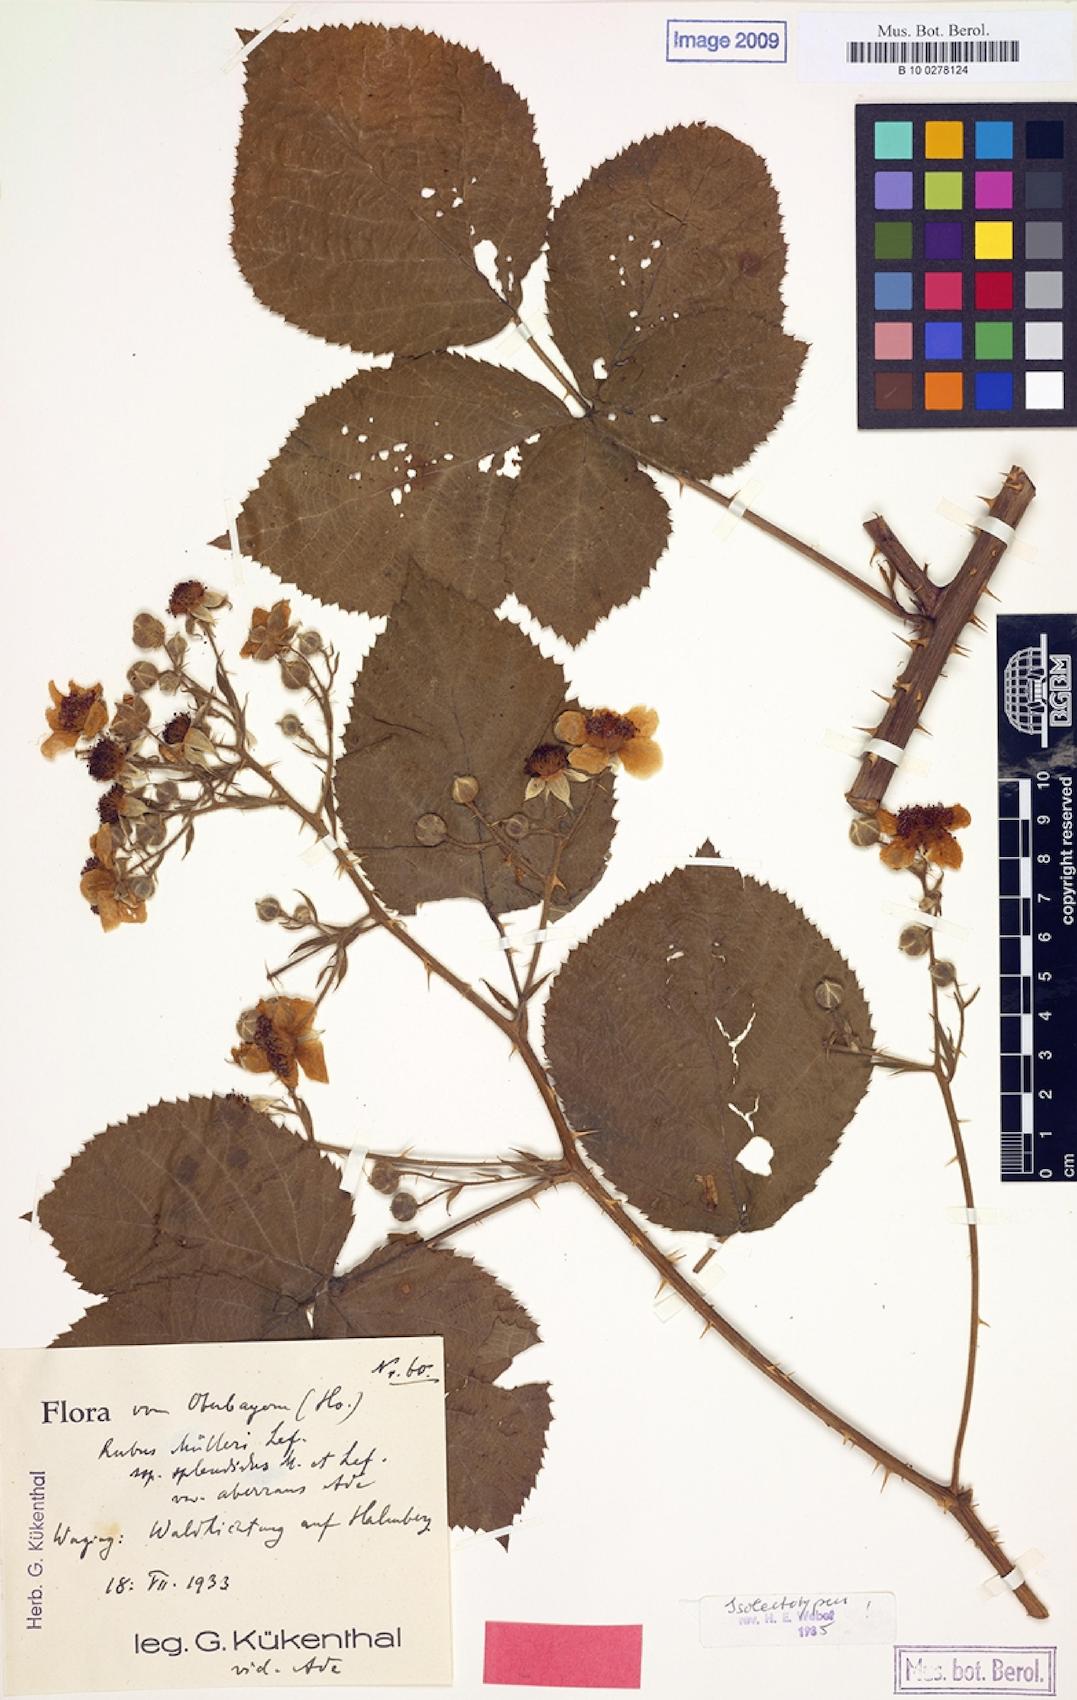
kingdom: Plantae
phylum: Tracheophyta
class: Magnoliopsida
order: Rosales
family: Rosaceae
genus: Rubus
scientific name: Rubus insericatus
